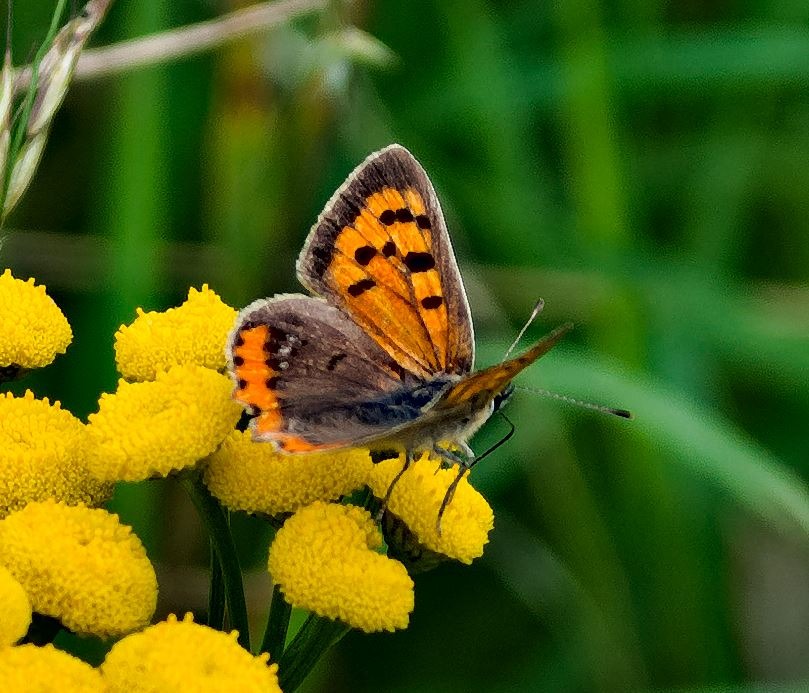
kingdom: Animalia
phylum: Arthropoda
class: Insecta
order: Lepidoptera
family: Lycaenidae
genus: Lycaena
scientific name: Lycaena phlaeas
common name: Lille ildfugl
